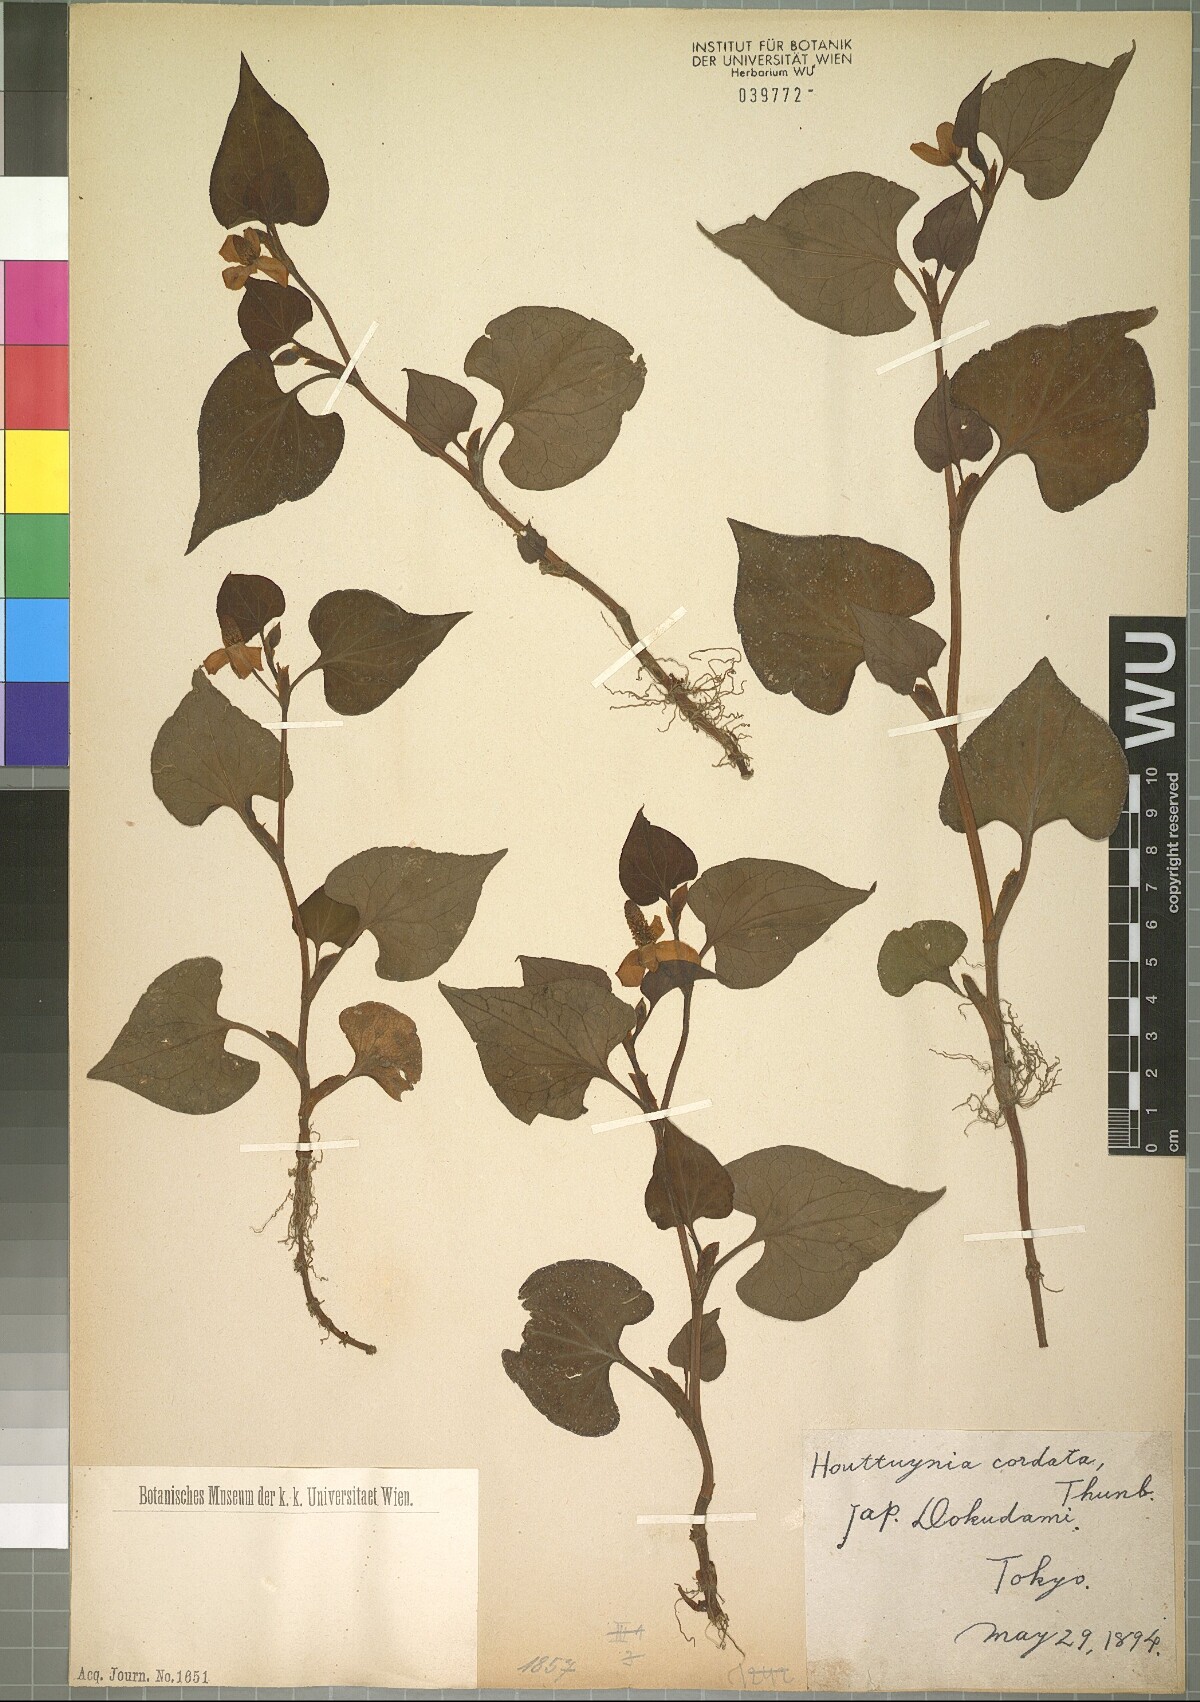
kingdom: Plantae
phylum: Tracheophyta
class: Magnoliopsida
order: Piperales
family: Saururaceae
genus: Houttuynia
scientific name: Houttuynia cordata
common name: Chameleon
